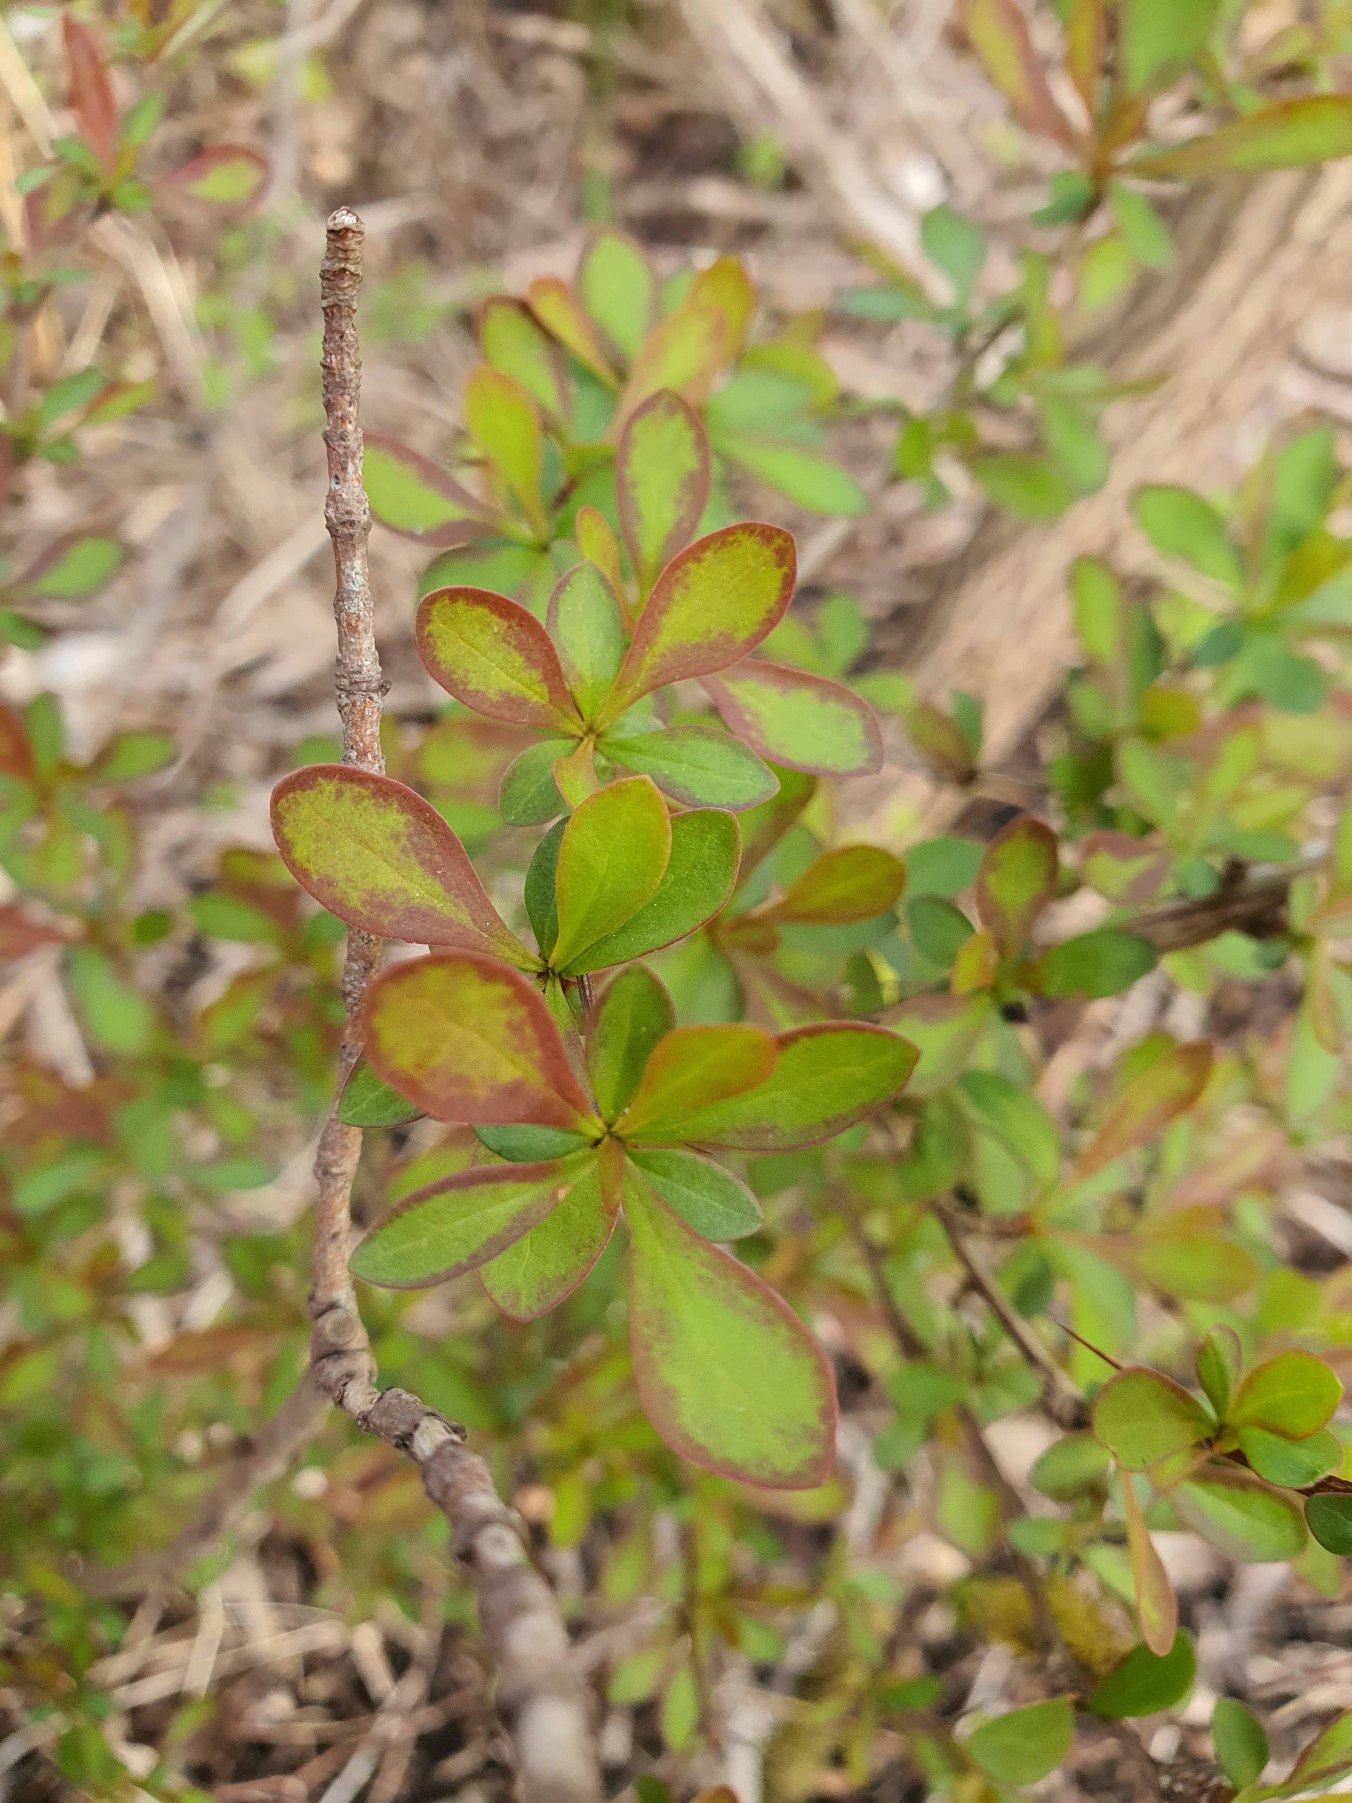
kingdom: Plantae
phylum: Tracheophyta
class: Magnoliopsida
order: Ranunculales
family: Berberidaceae
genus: Berberis
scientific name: Berberis thunbergii
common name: Hæk-berberis
